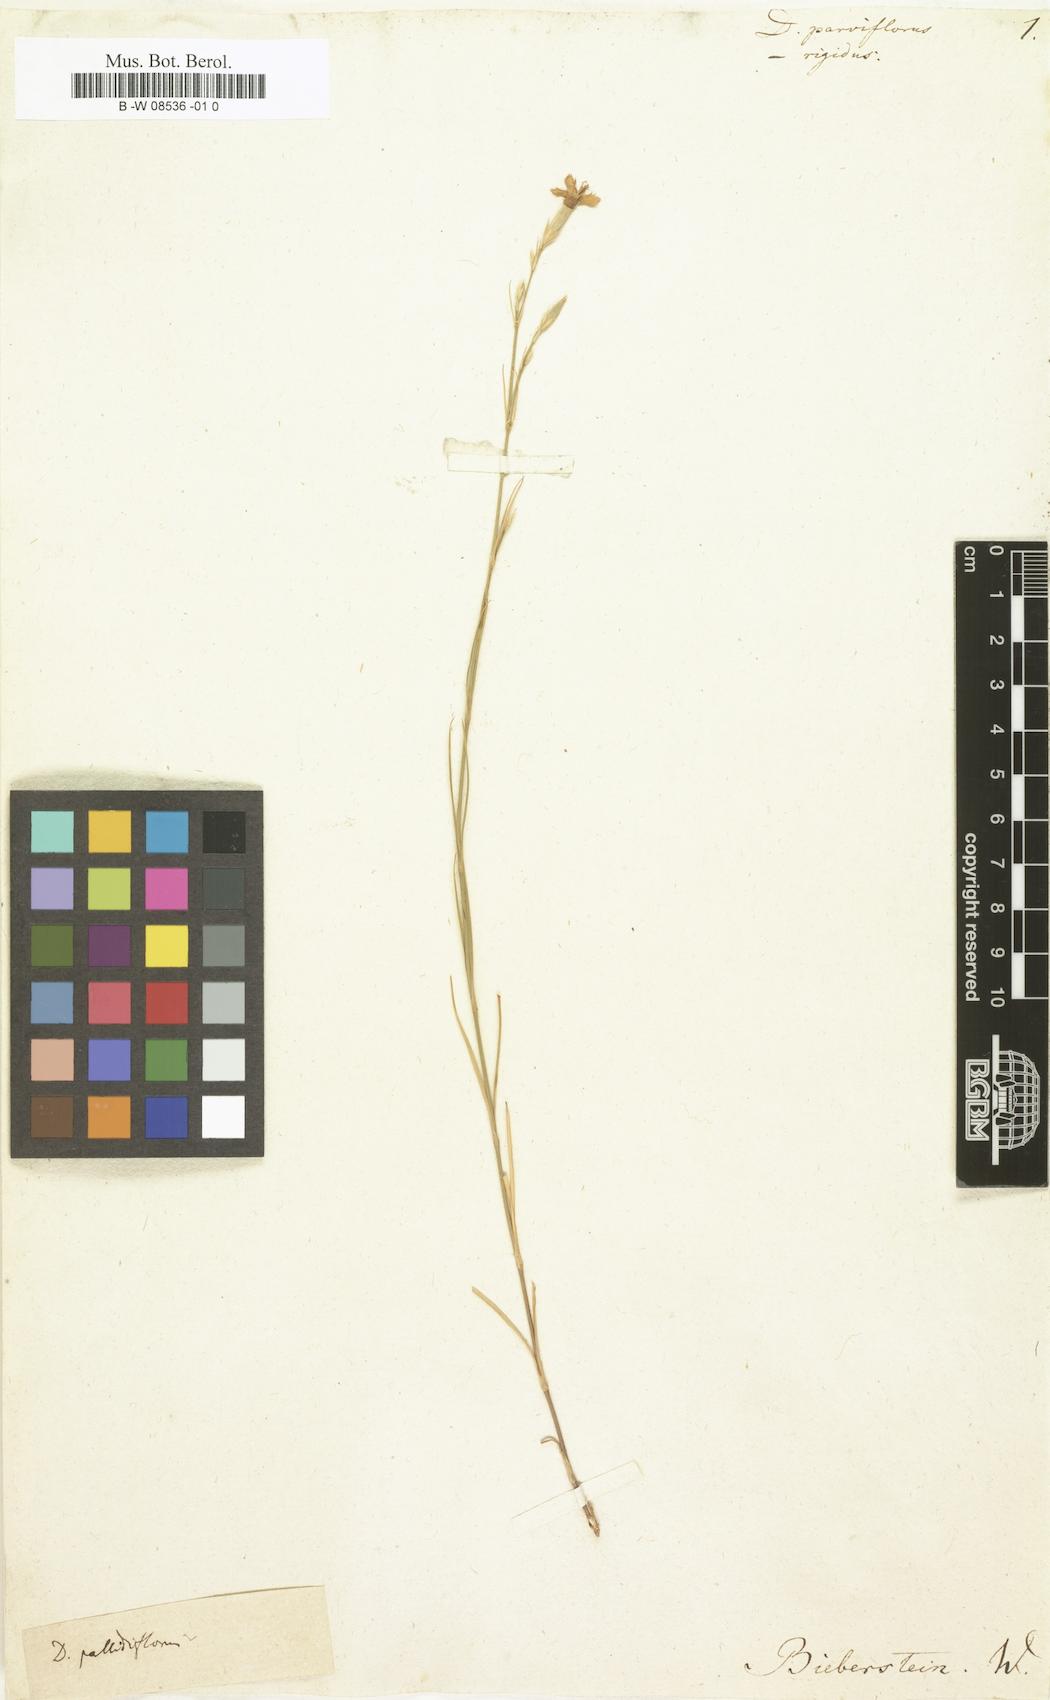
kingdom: Plantae
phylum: Tracheophyta
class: Magnoliopsida
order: Caryophyllales
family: Caryophyllaceae
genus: Dianthus
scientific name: Dianthus
